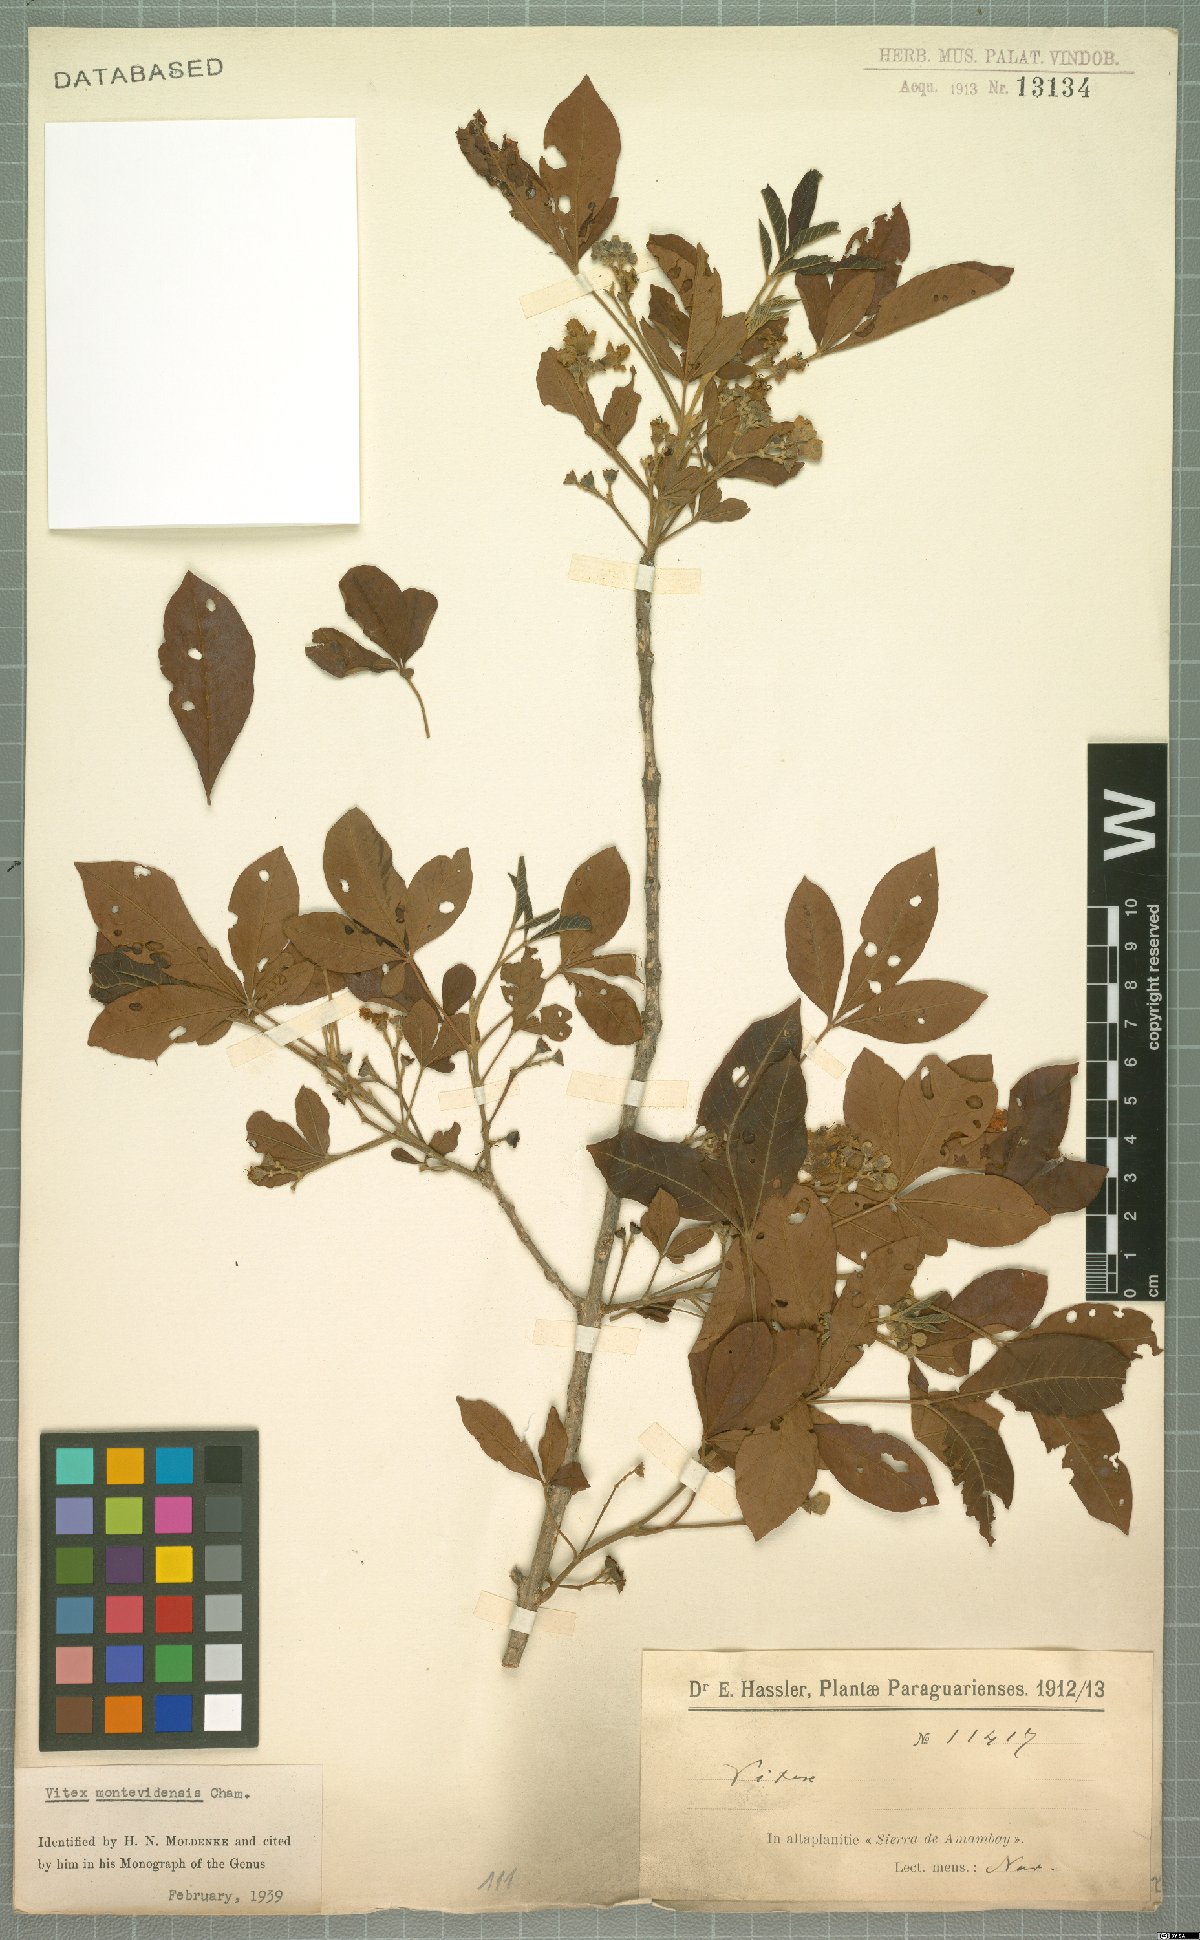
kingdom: Plantae
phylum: Tracheophyta
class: Magnoliopsida
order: Lamiales
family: Lamiaceae
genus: Vitex
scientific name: Vitex megapotamica
